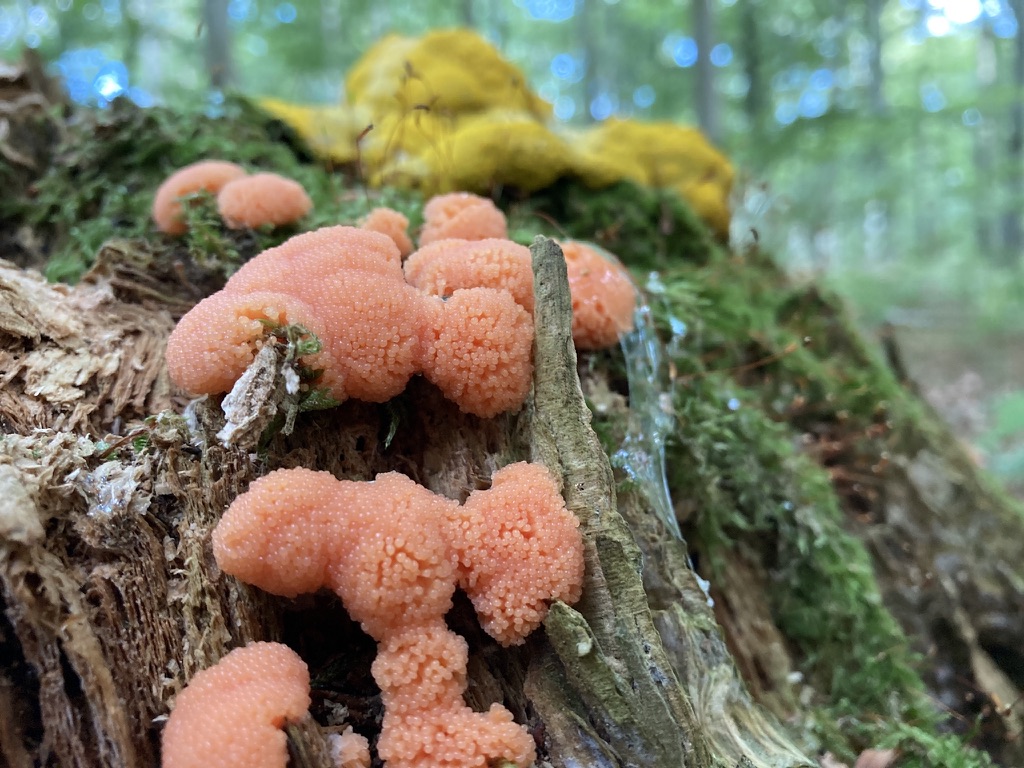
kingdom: Protozoa
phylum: Mycetozoa
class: Myxomycetes
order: Cribrariales
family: Tubiferaceae
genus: Tubifera
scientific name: Tubifera ferruginosa
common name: kanel-støvrør
